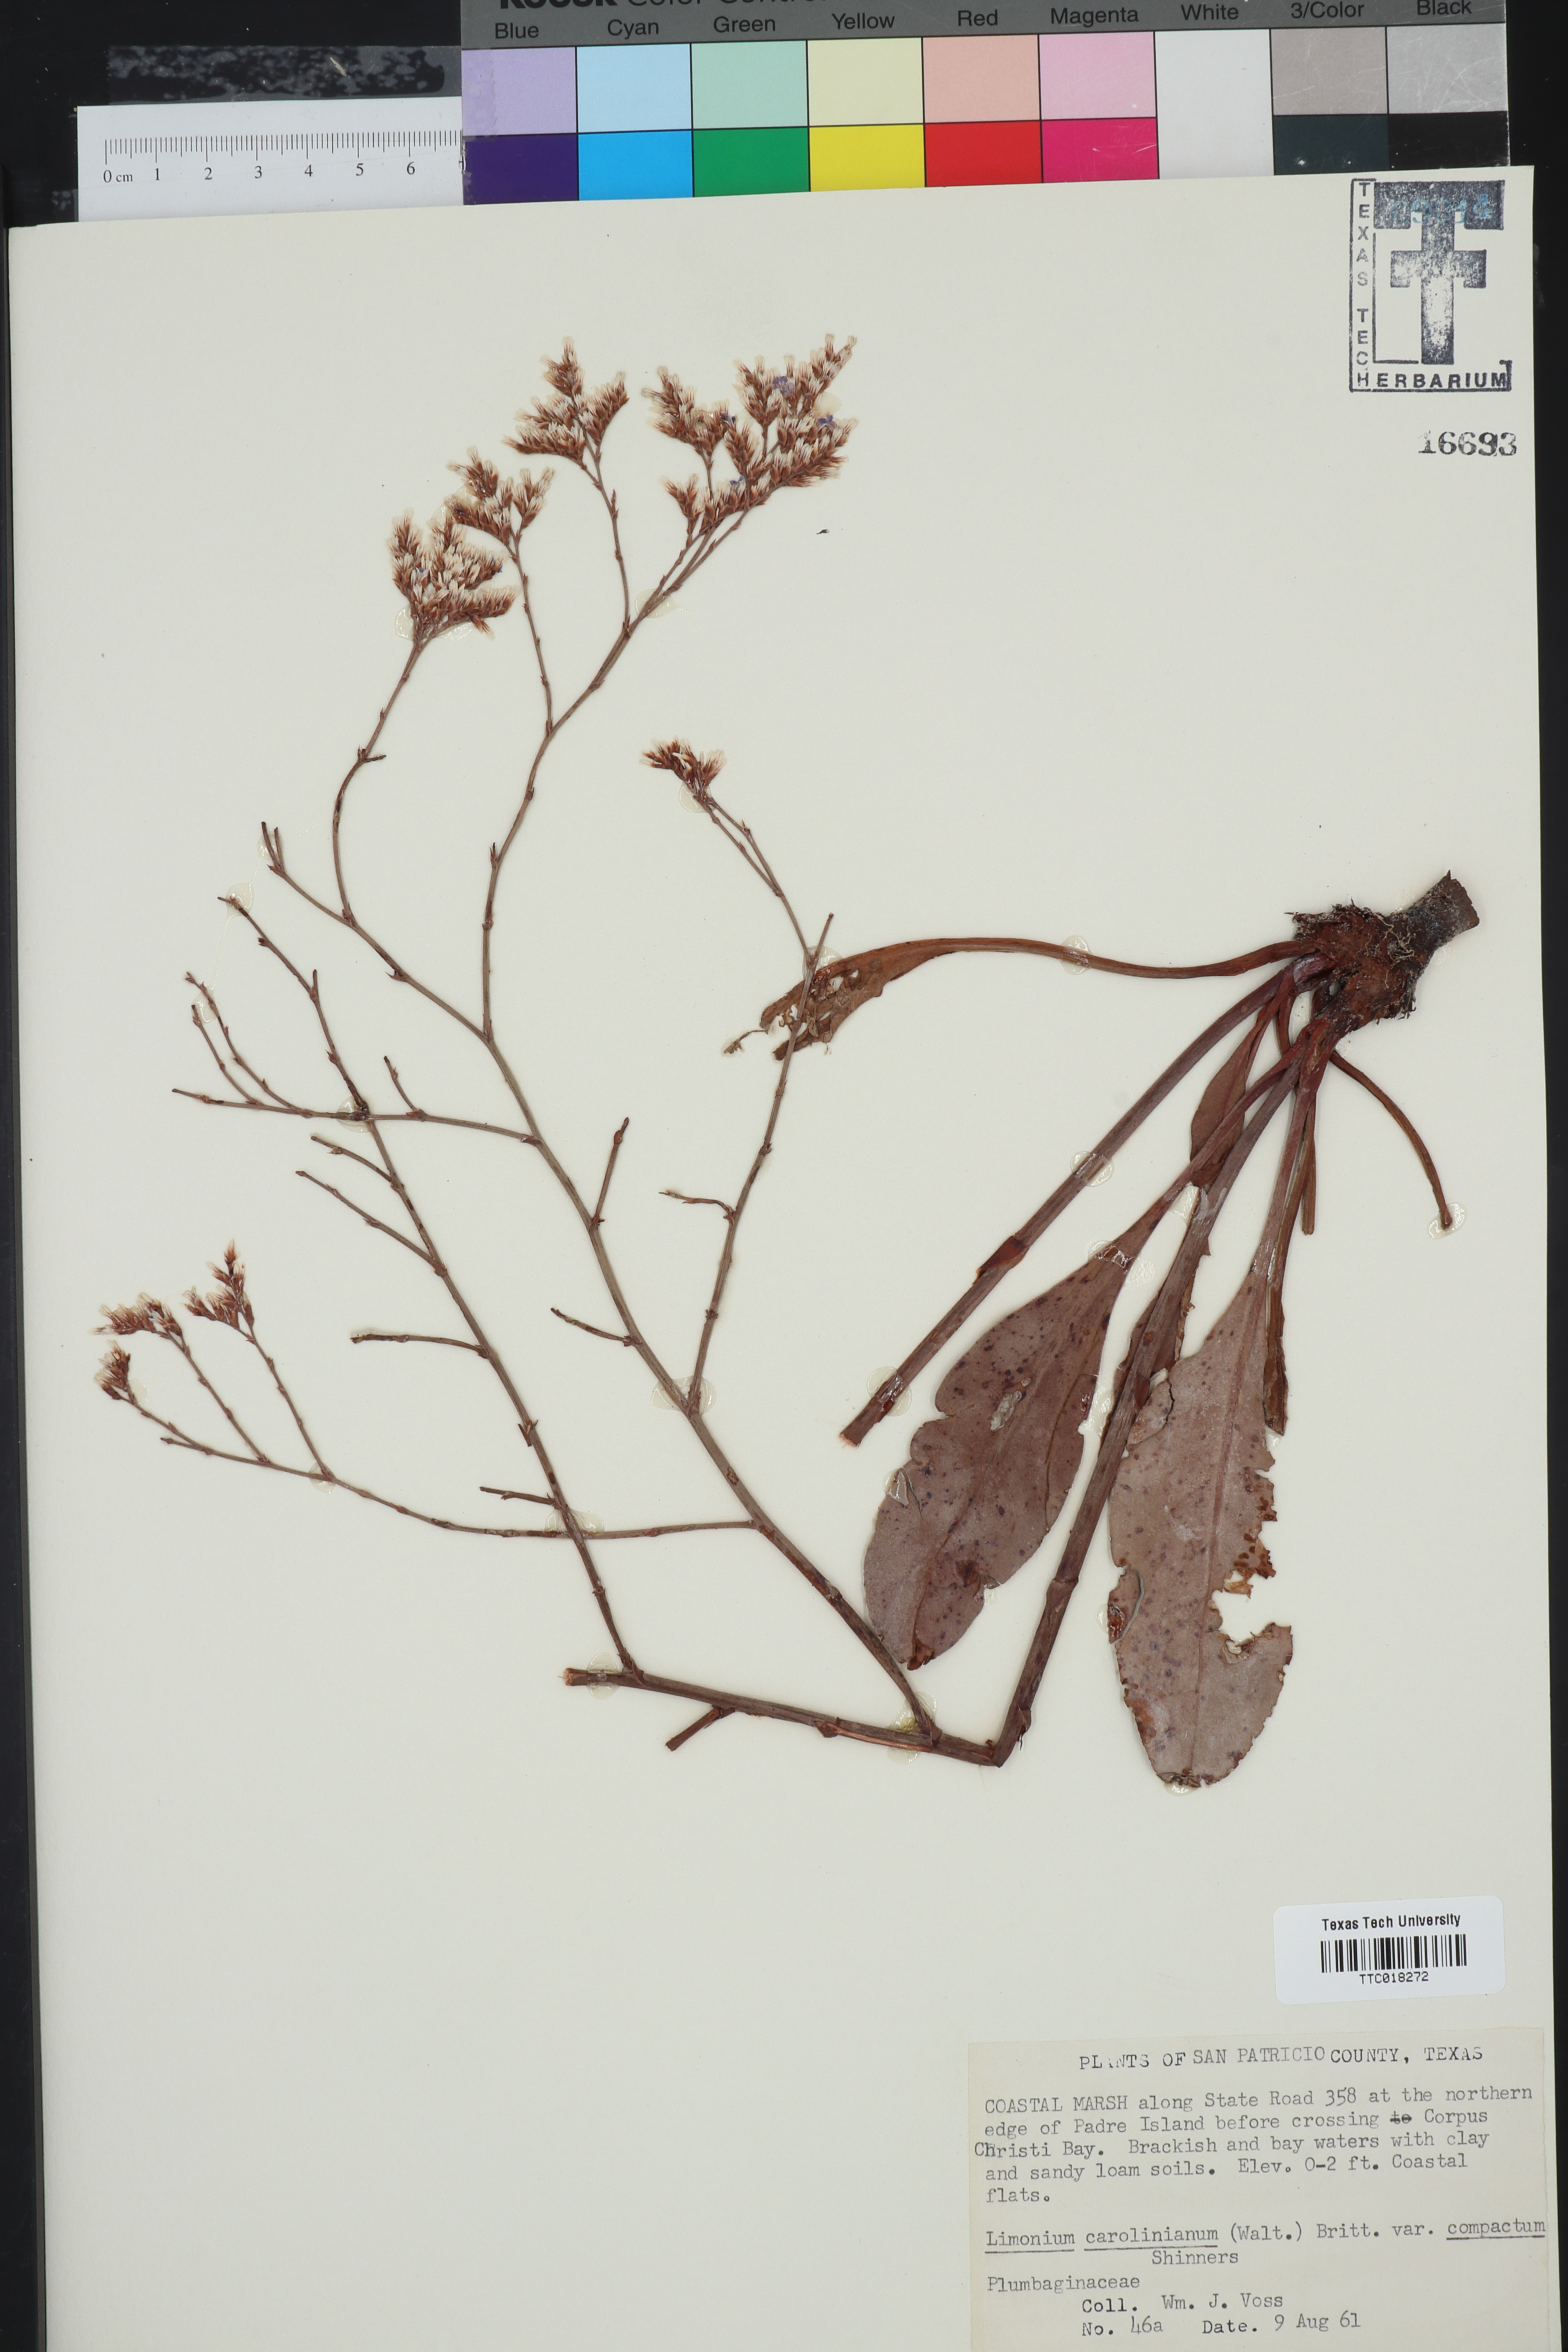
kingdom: Plantae
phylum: Tracheophyta
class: Magnoliopsida
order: Caryophyllales
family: Plumbaginaceae
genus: Limonium
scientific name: Limonium carolinianum
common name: Carolina sea lavender
